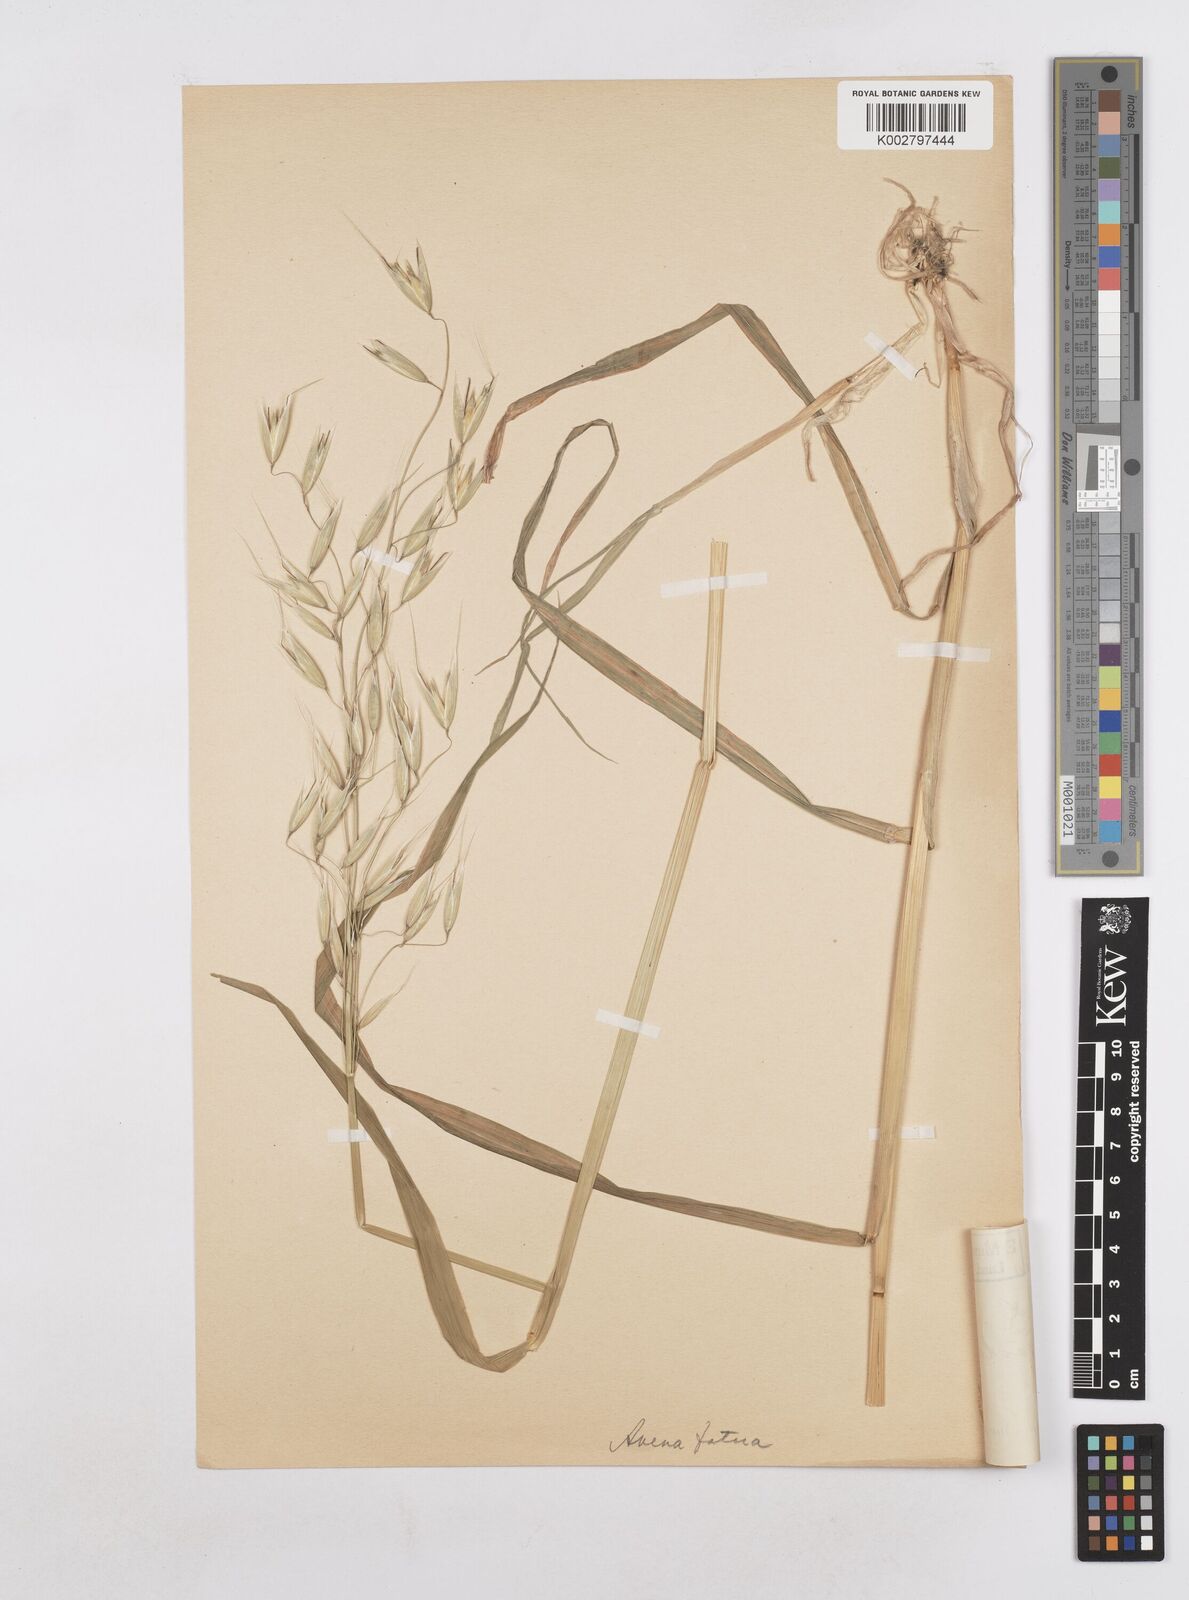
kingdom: Plantae
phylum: Tracheophyta
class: Liliopsida
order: Poales
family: Poaceae
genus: Avena
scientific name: Avena fatua
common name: Wild oat
